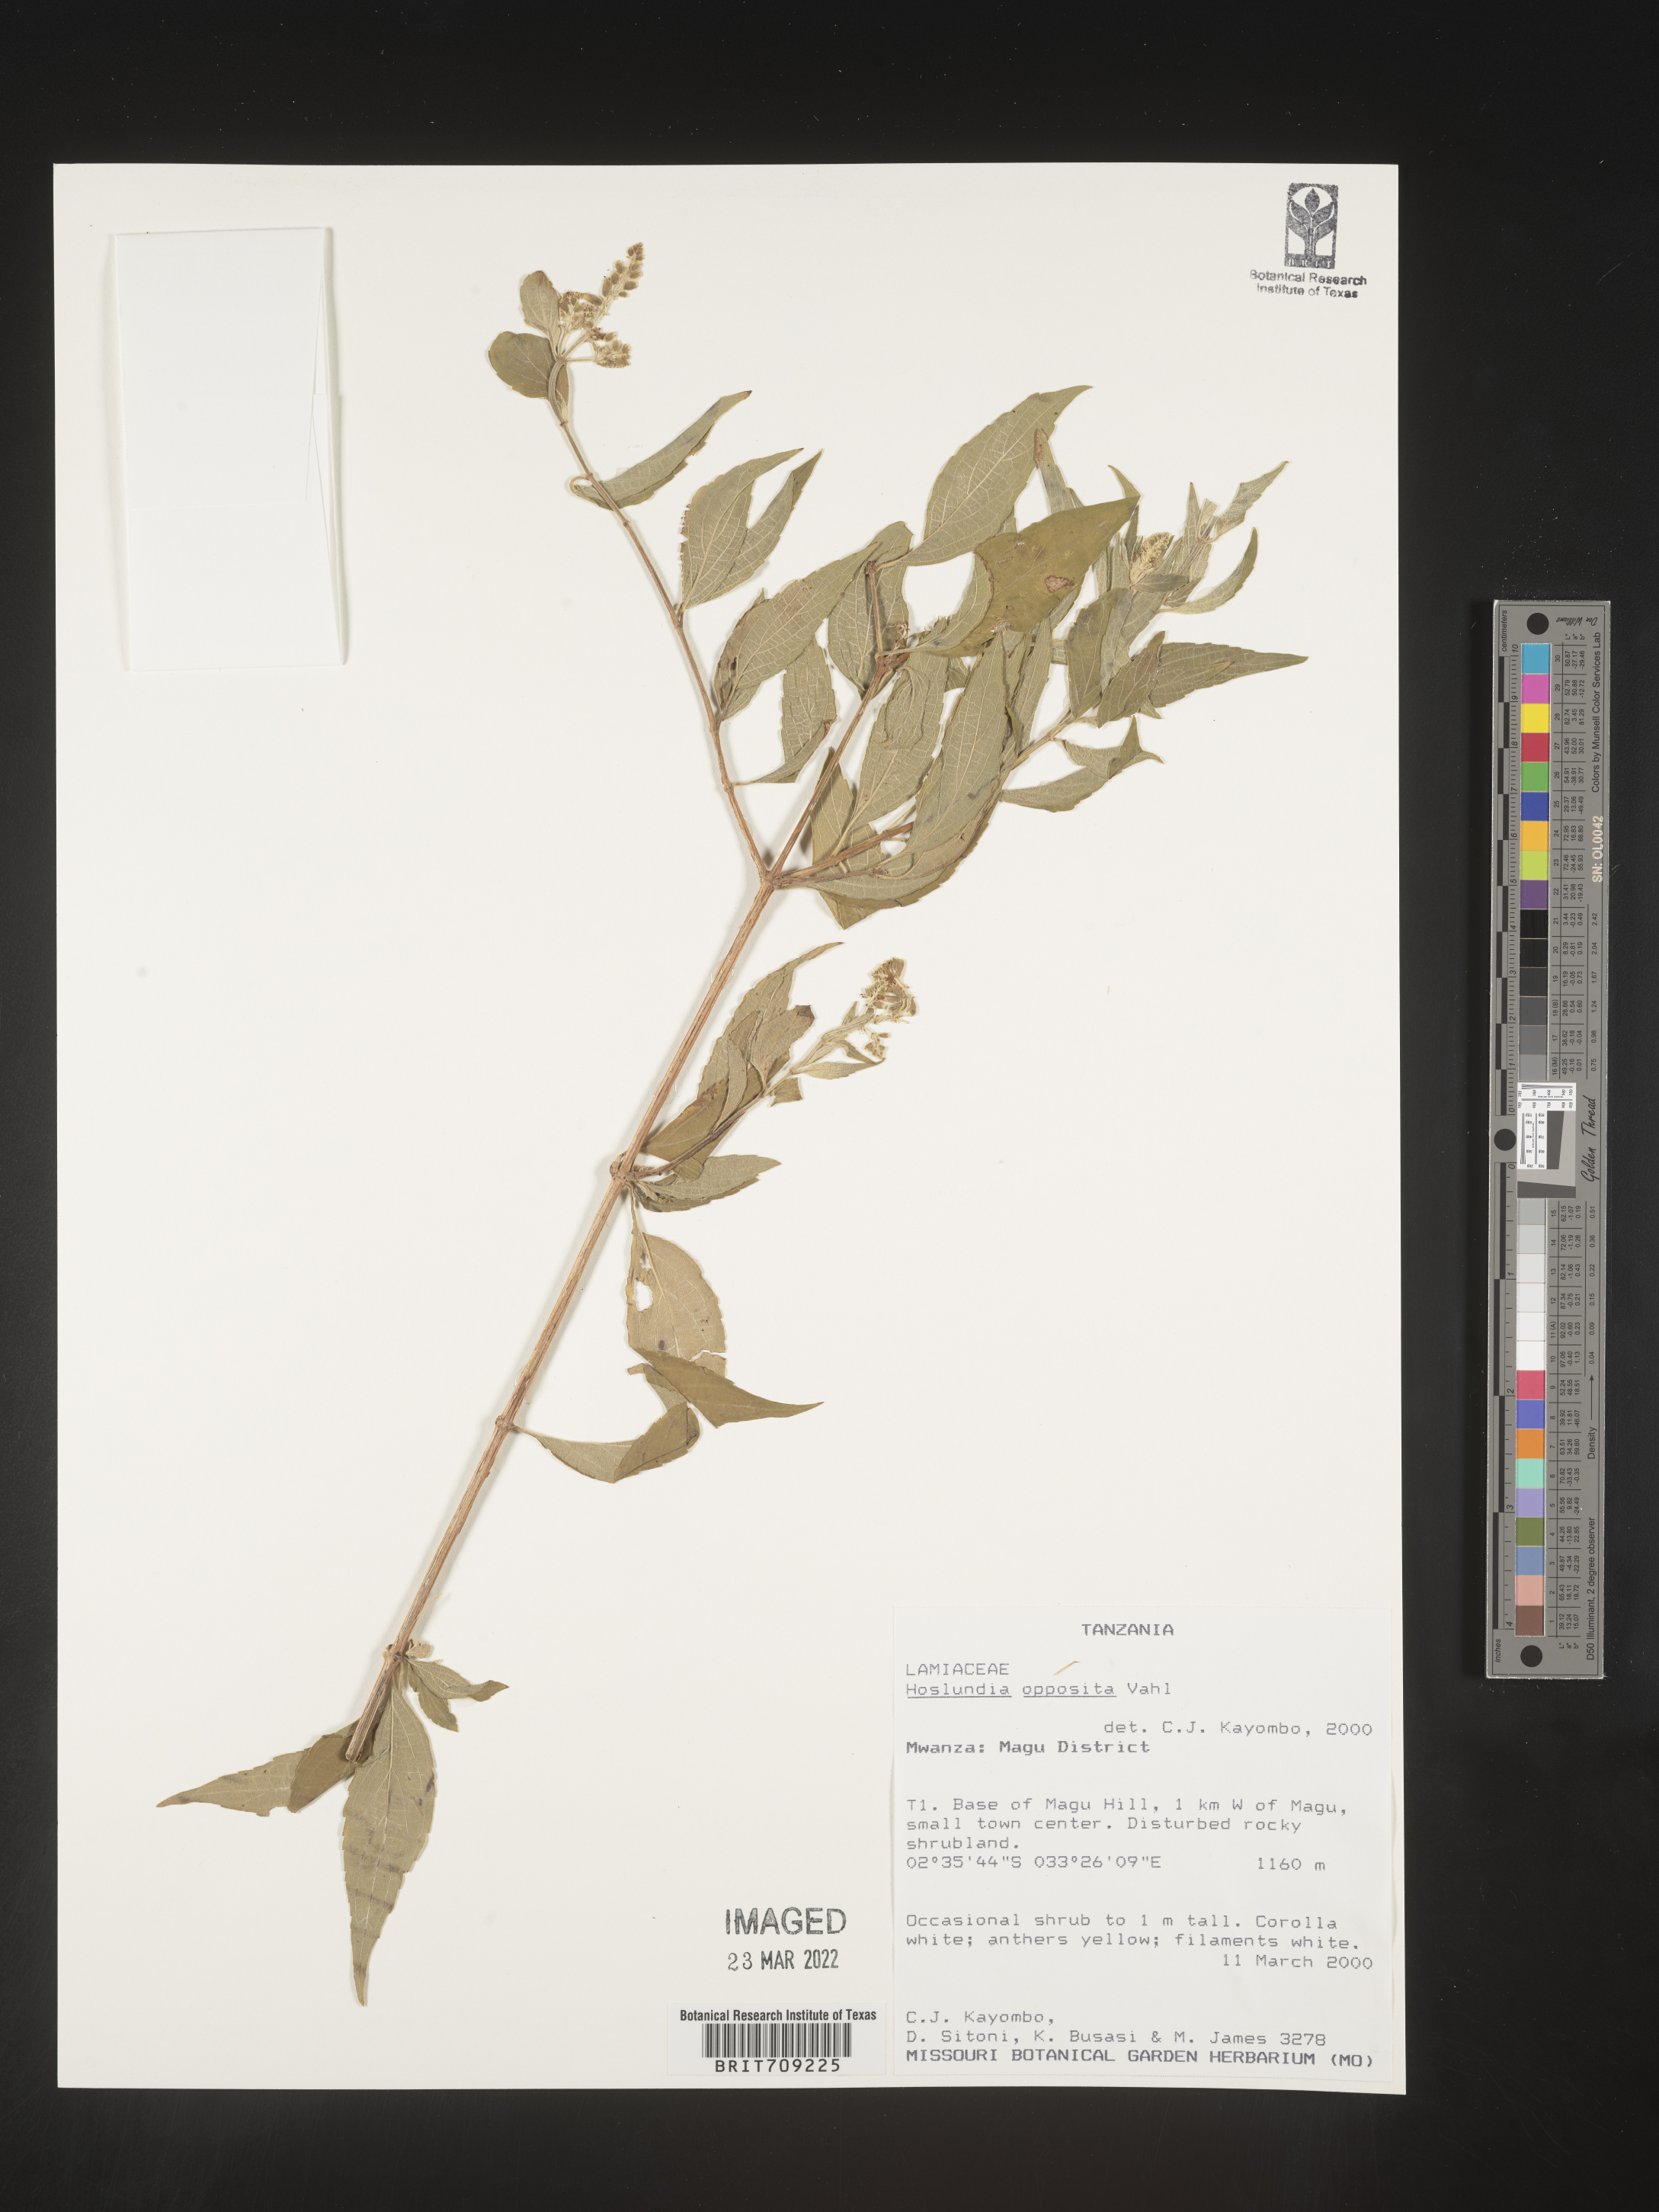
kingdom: Plantae
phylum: Tracheophyta
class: Magnoliopsida
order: Lamiales
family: Lamiaceae
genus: Hoslundia
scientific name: Hoslundia opposita
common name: Kamyuye
